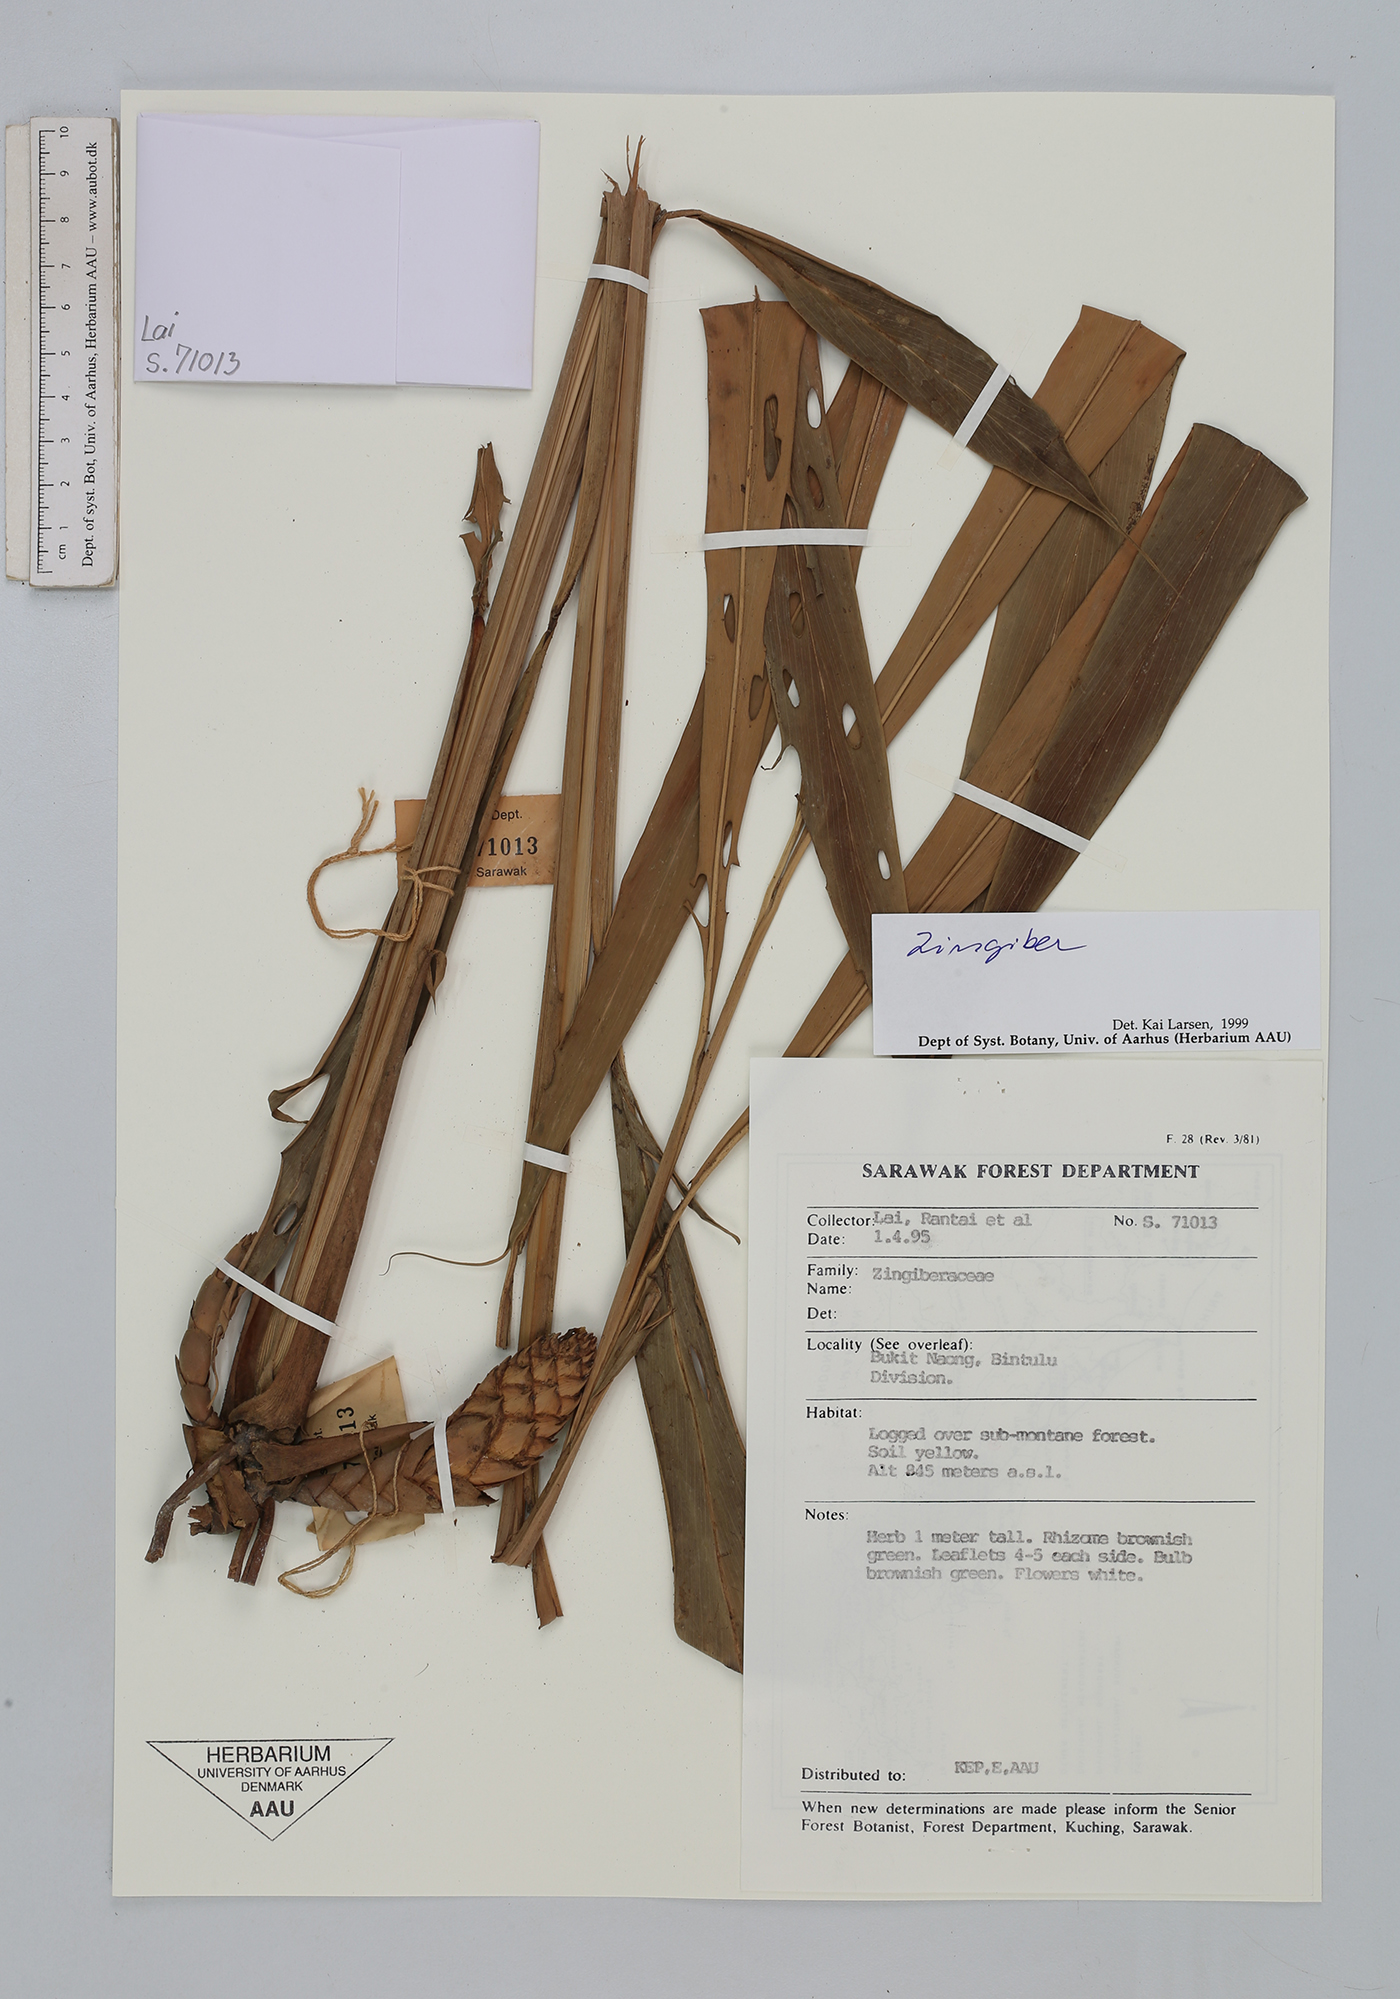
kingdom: Plantae
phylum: Tracheophyta
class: Liliopsida
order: Zingiberales
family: Zingiberaceae
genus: Zingiber
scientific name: Zingiber
